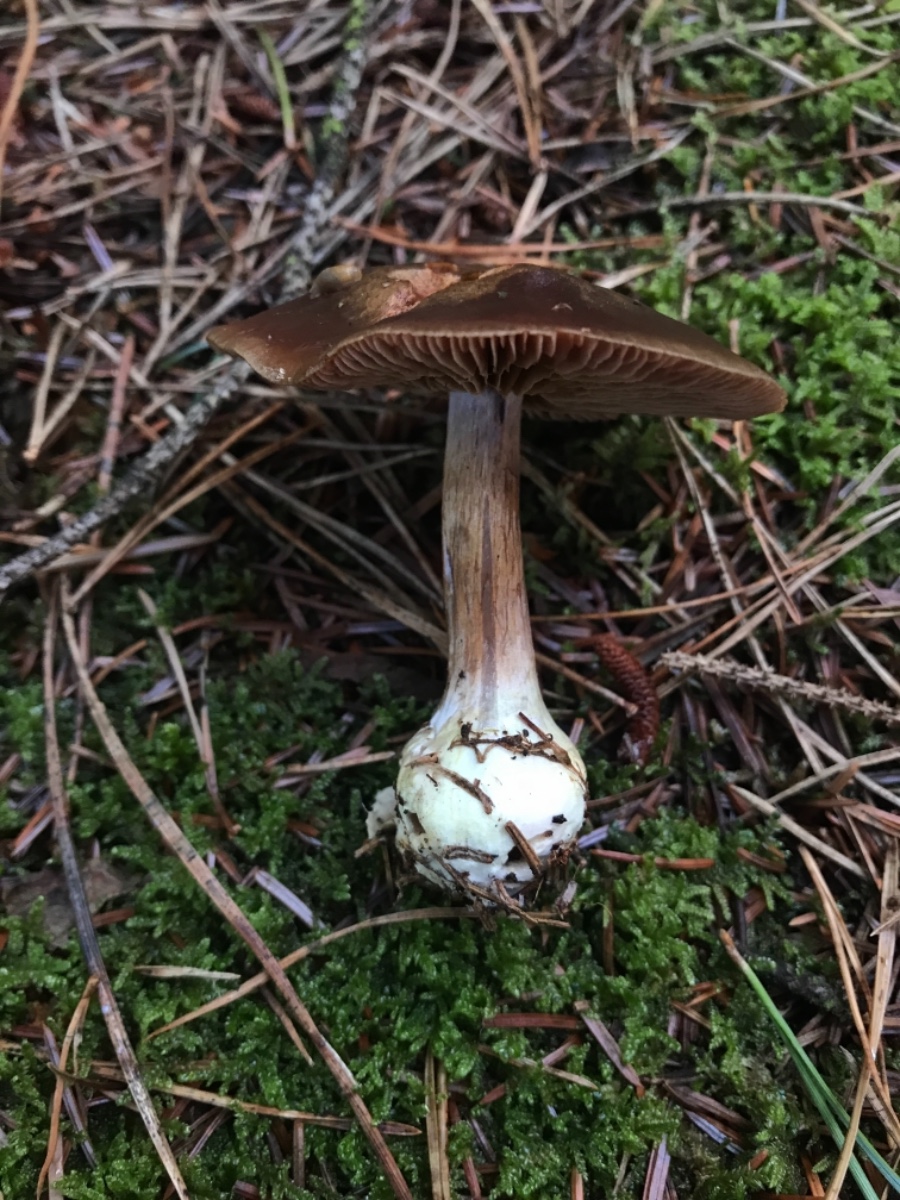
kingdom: Fungi
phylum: Basidiomycota
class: Agaricomycetes
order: Agaricales
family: Cortinariaceae
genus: Thaxterogaster
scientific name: Thaxterogaster sphagnophilus
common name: vandplettet slørhat
